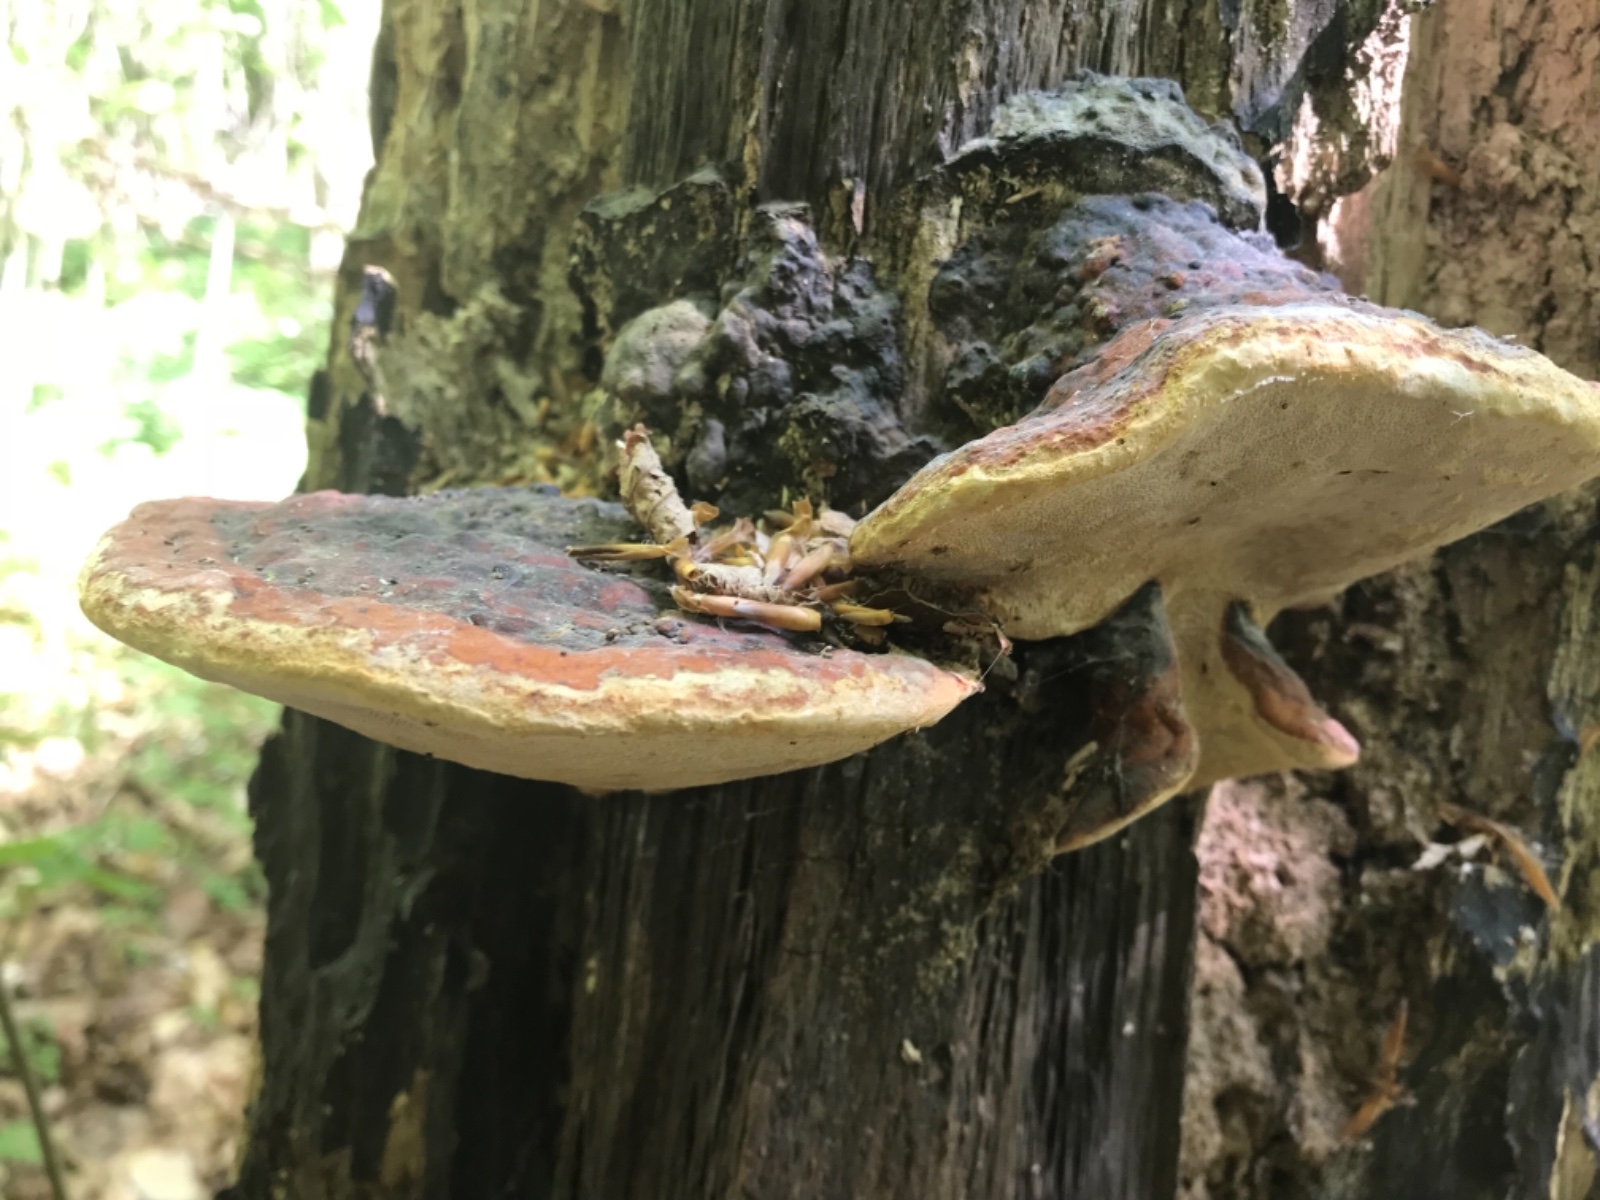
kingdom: Fungi
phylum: Basidiomycota
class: Agaricomycetes
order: Polyporales
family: Fomitopsidaceae
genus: Fomitopsis
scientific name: Fomitopsis pinicola
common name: randbæltet hovporesvamp
